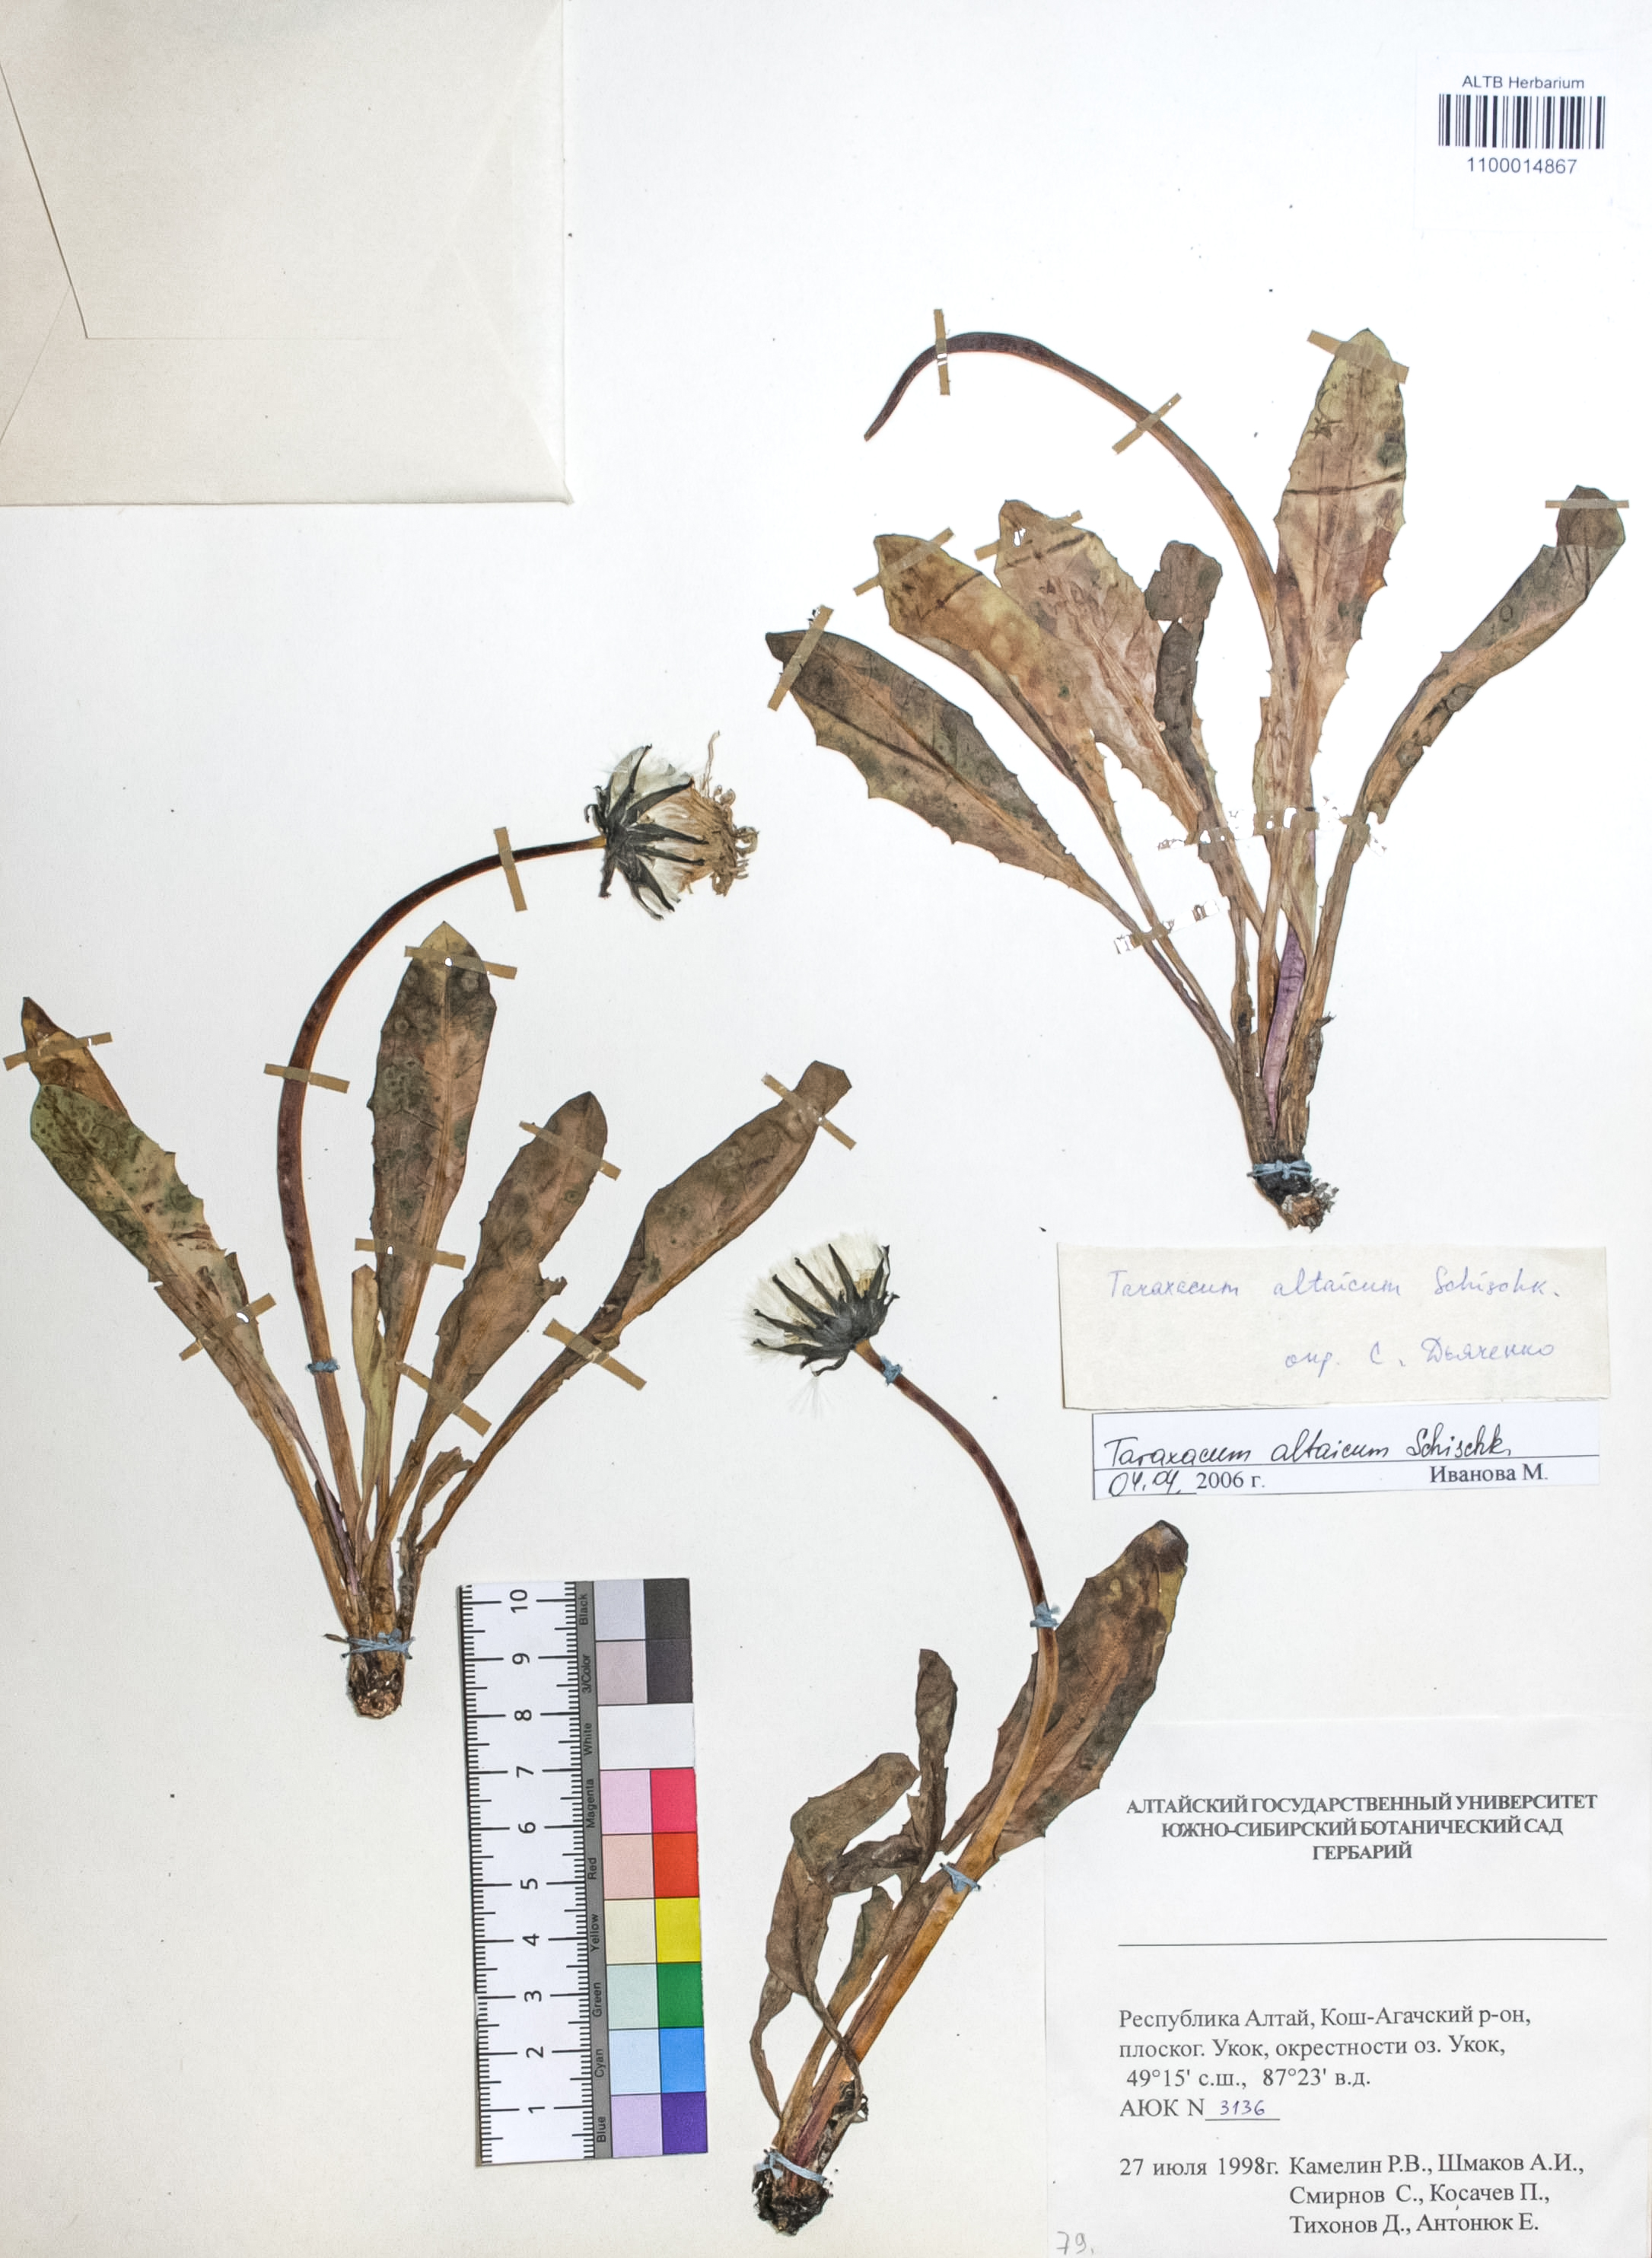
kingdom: Plantae
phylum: Tracheophyta
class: Magnoliopsida
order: Asterales
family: Asteraceae
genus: Taraxacum
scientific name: Taraxacum ceratophorum
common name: Horn-bearing dandelion
